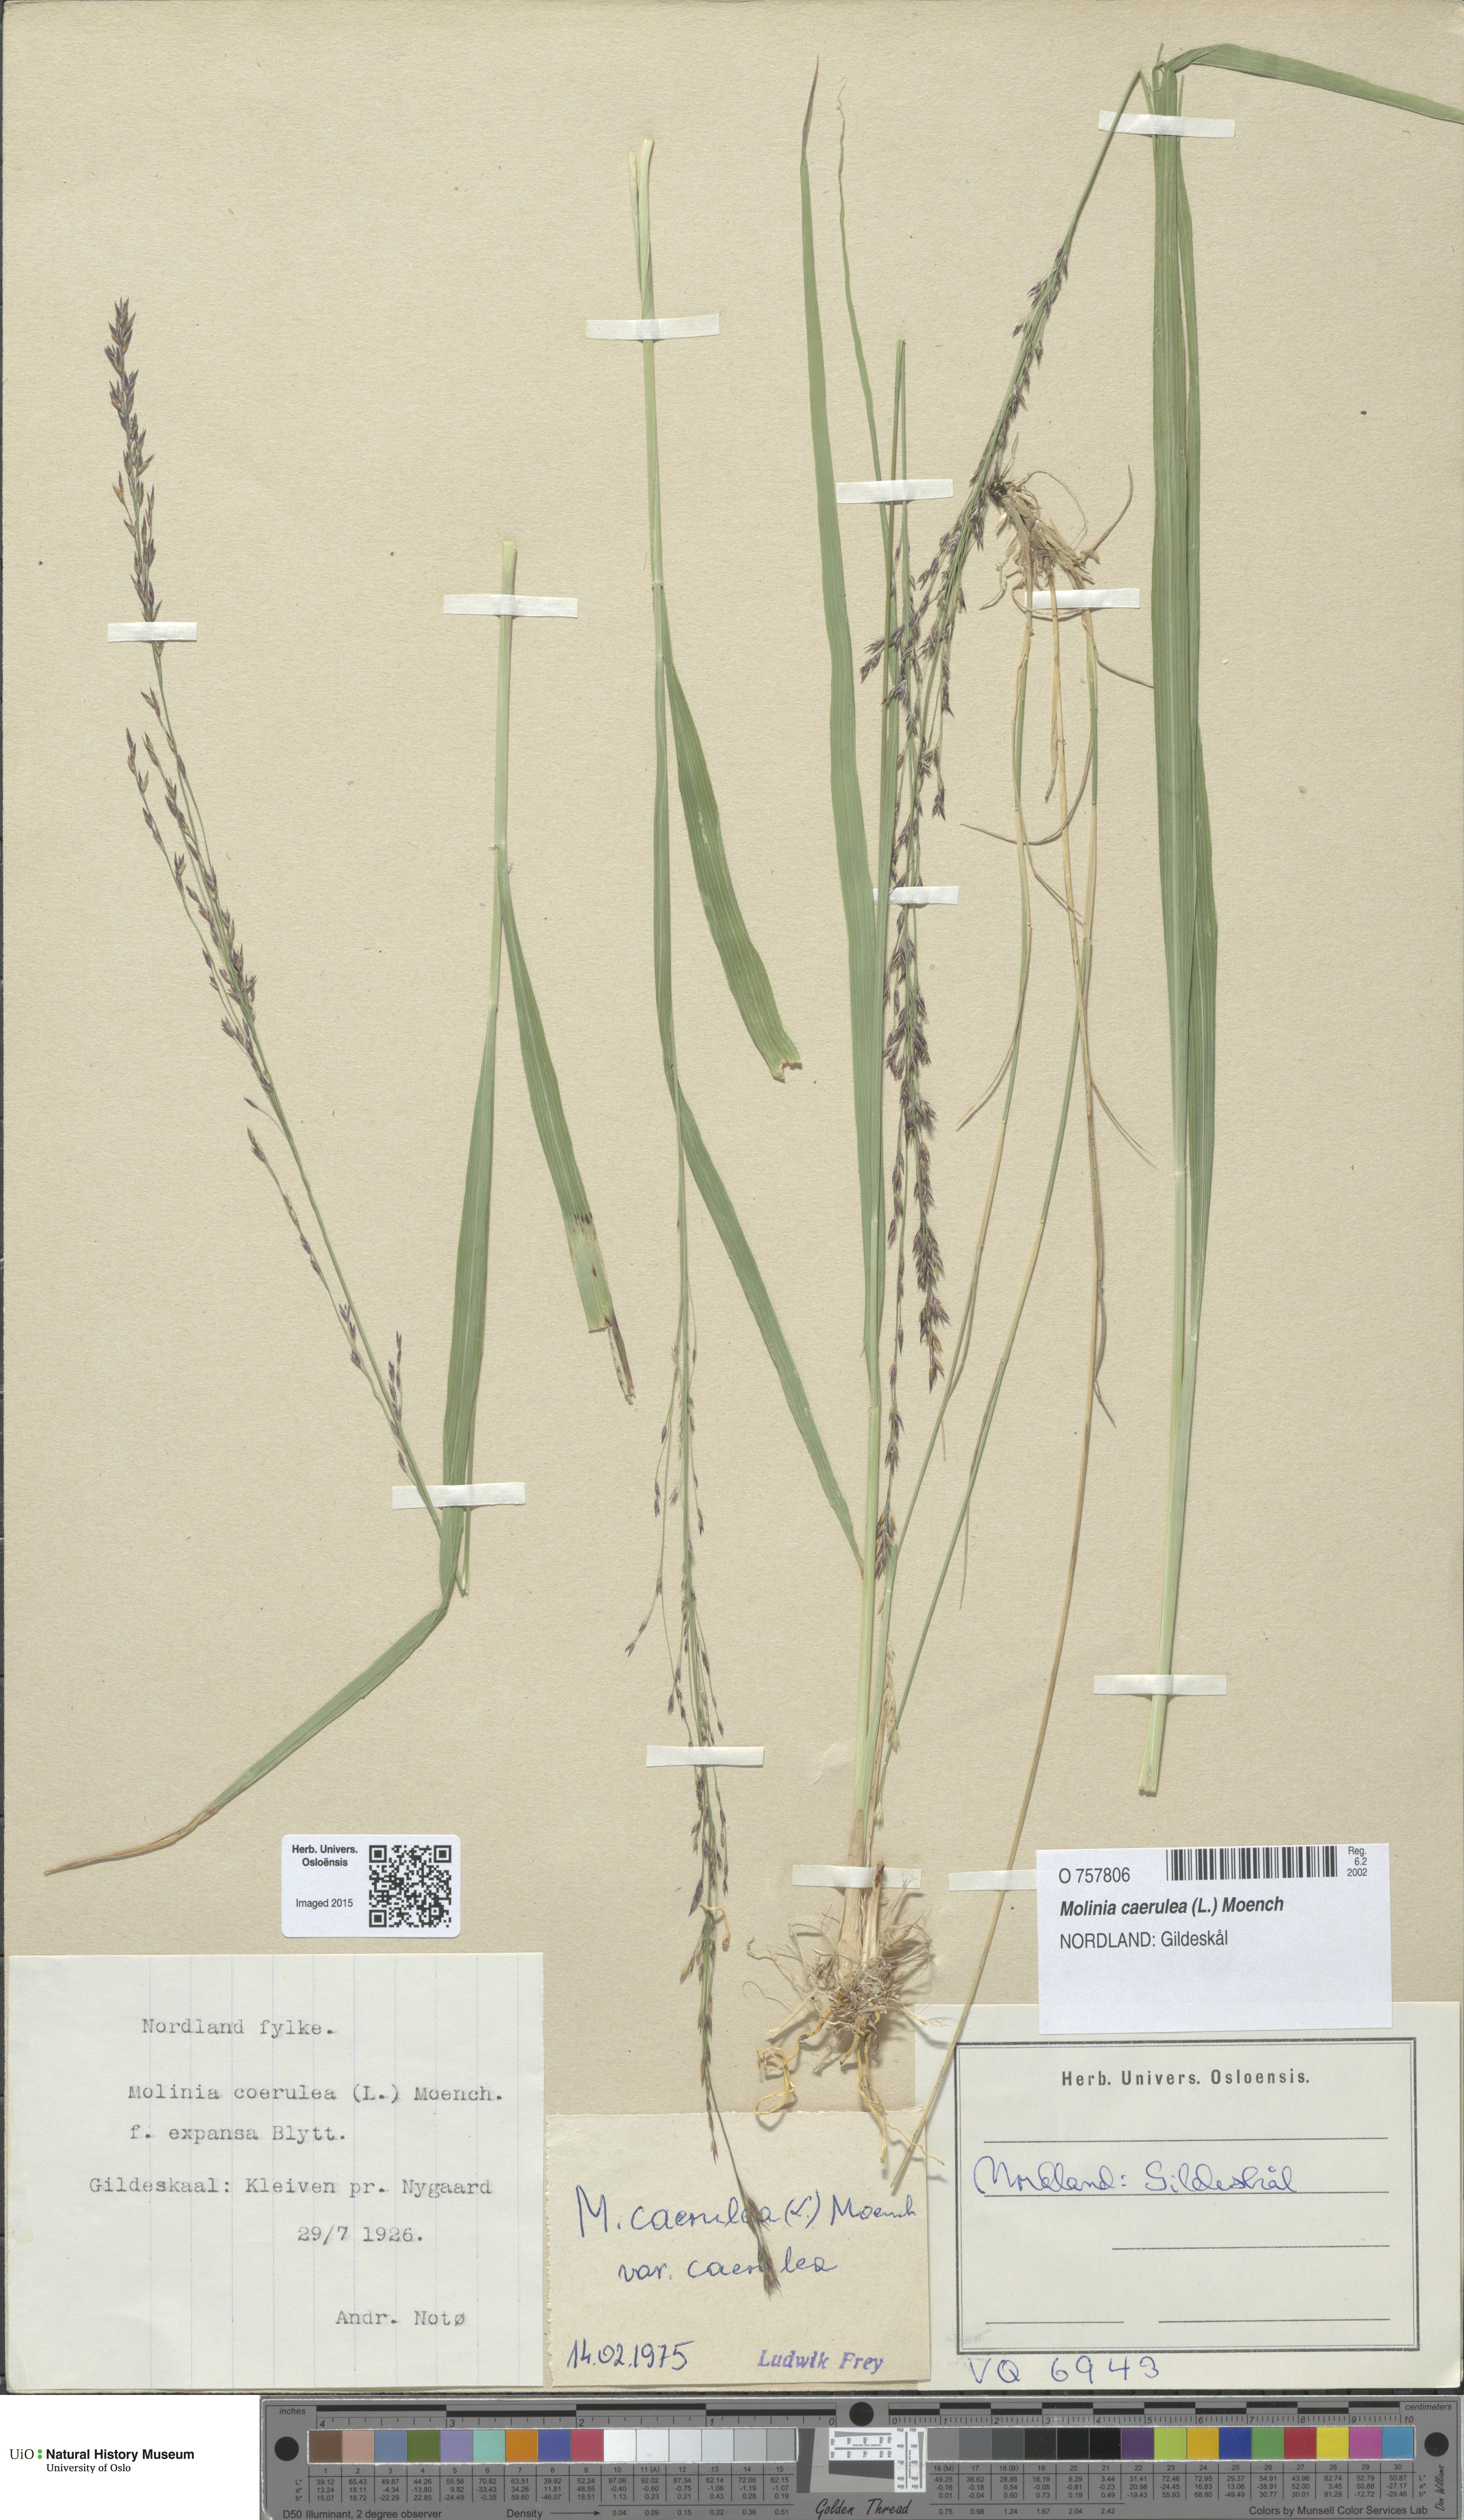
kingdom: Plantae
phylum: Tracheophyta
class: Liliopsida
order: Poales
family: Poaceae
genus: Molinia
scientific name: Molinia caerulea
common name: Purple moor-grass
